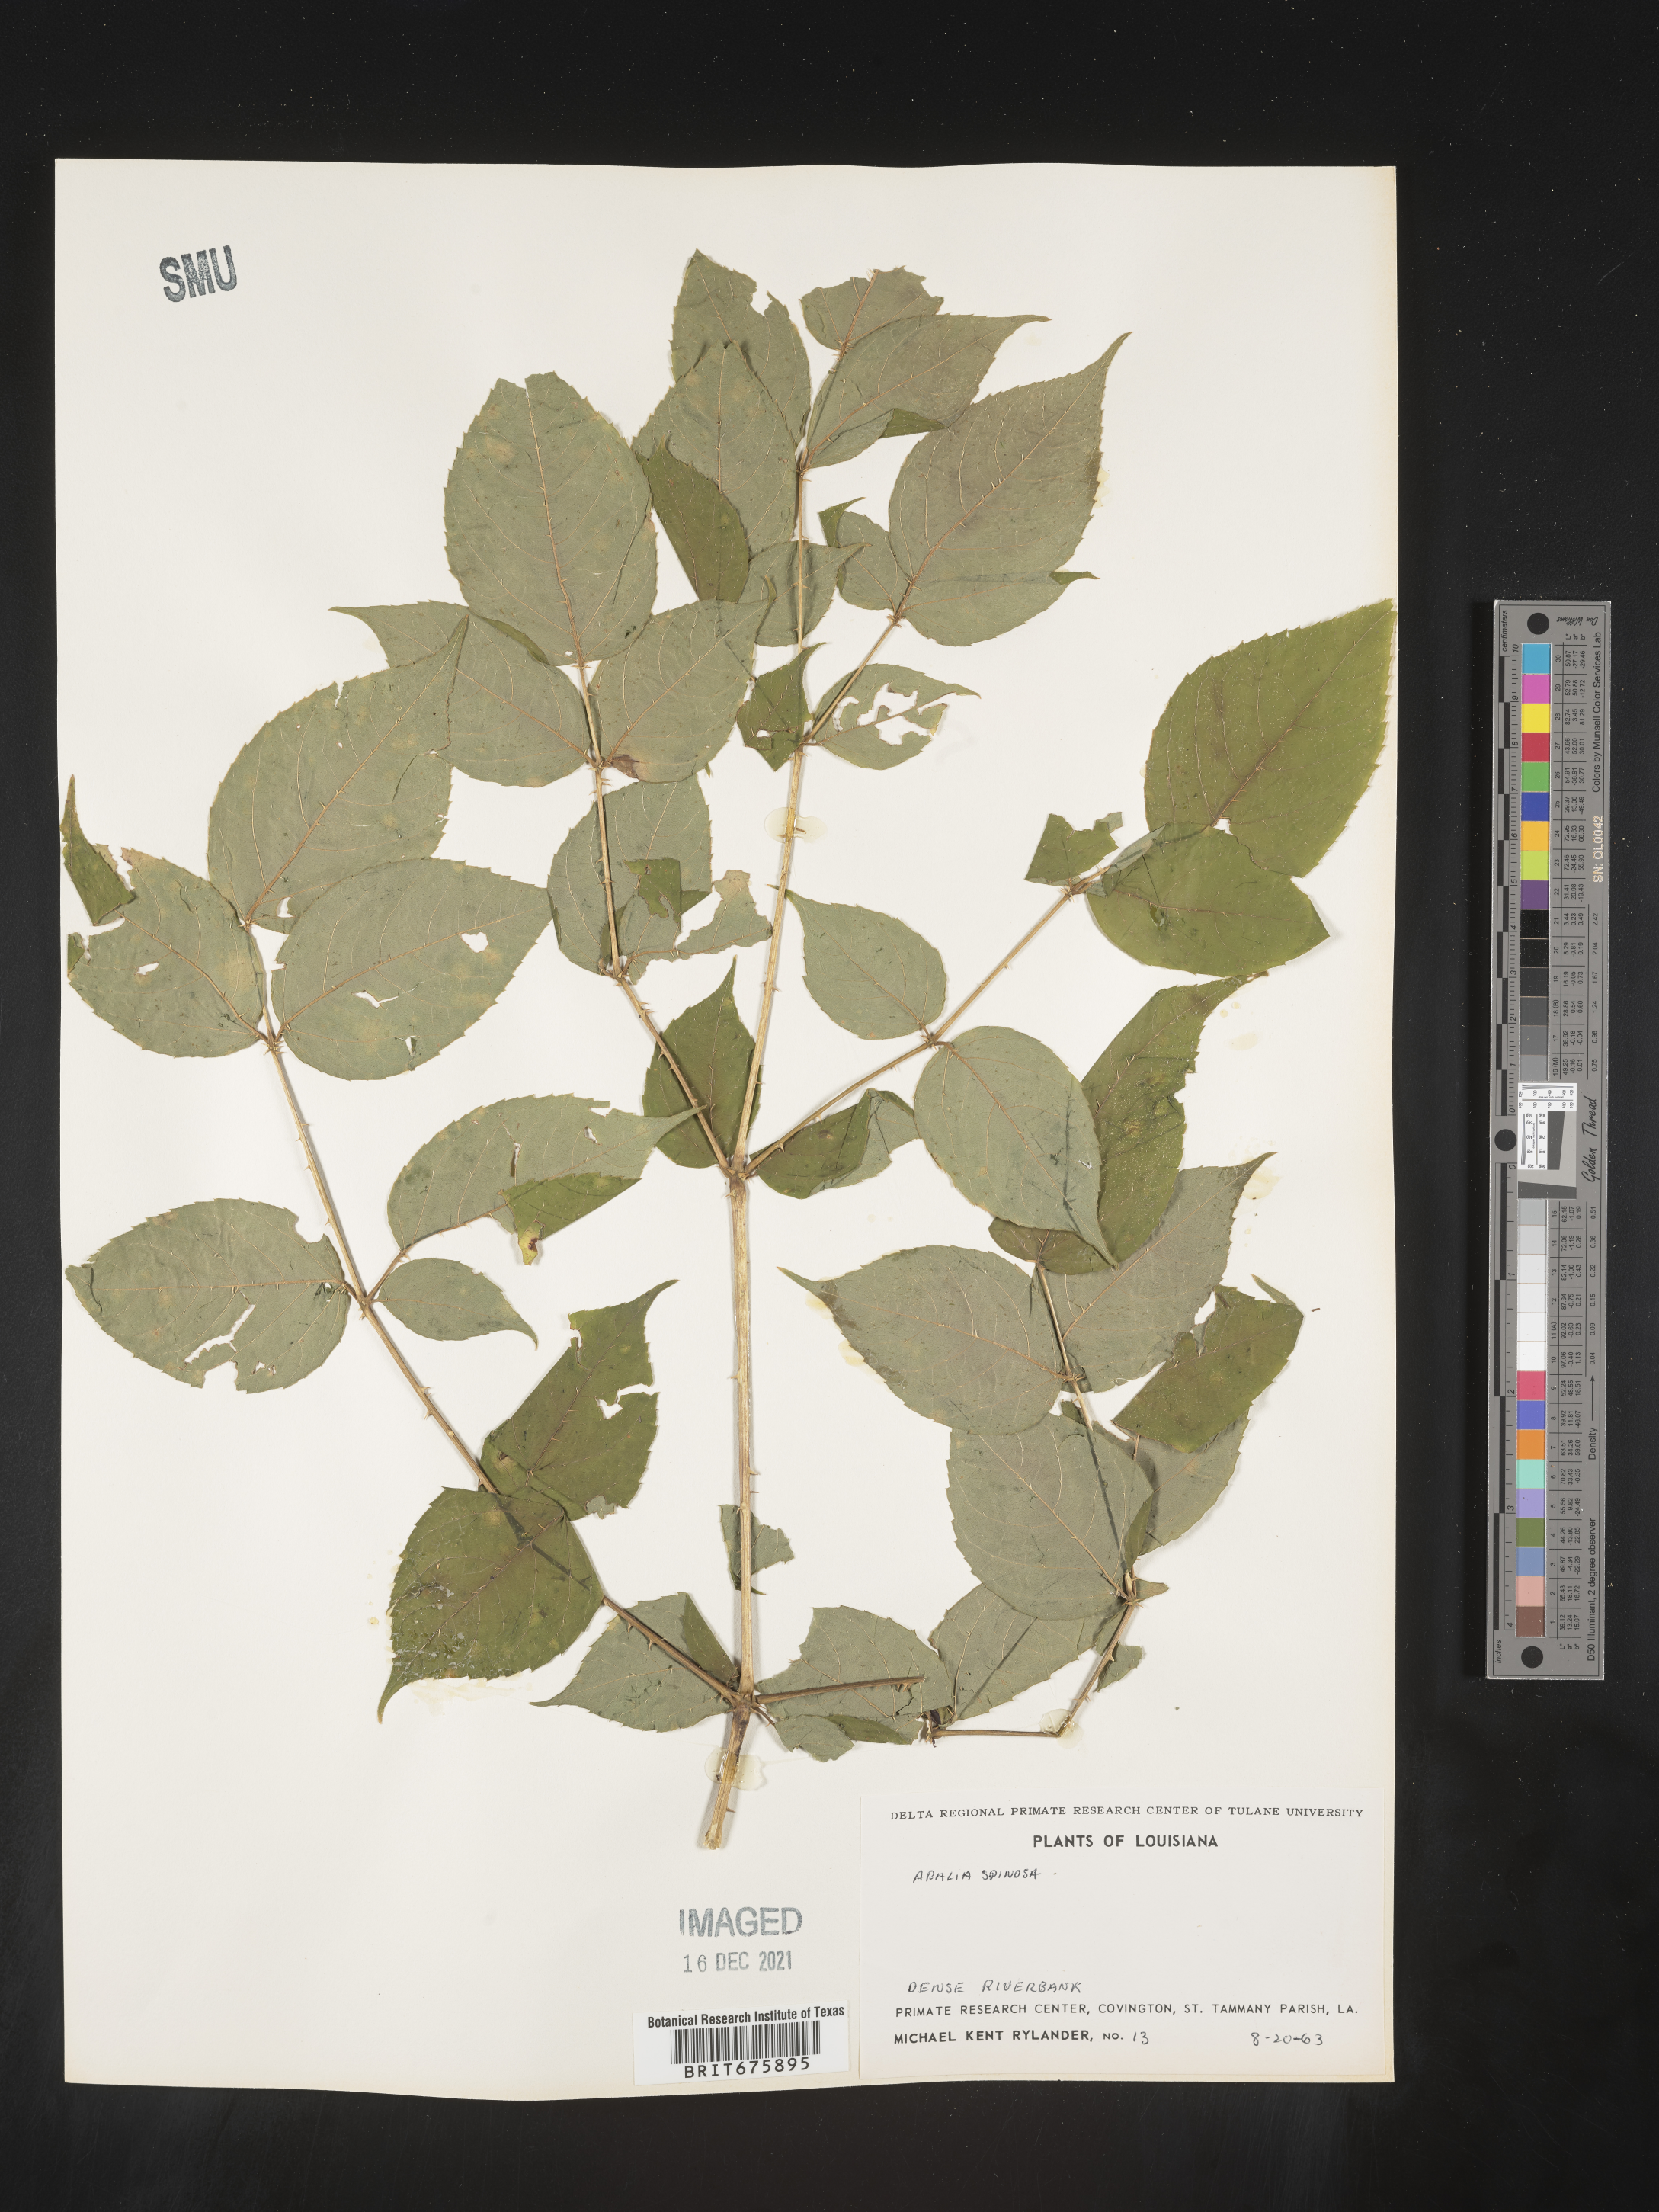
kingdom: Plantae
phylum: Tracheophyta
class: Magnoliopsida
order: Apiales
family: Araliaceae
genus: Aralia
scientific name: Aralia spinosa
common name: Hercules'-club
